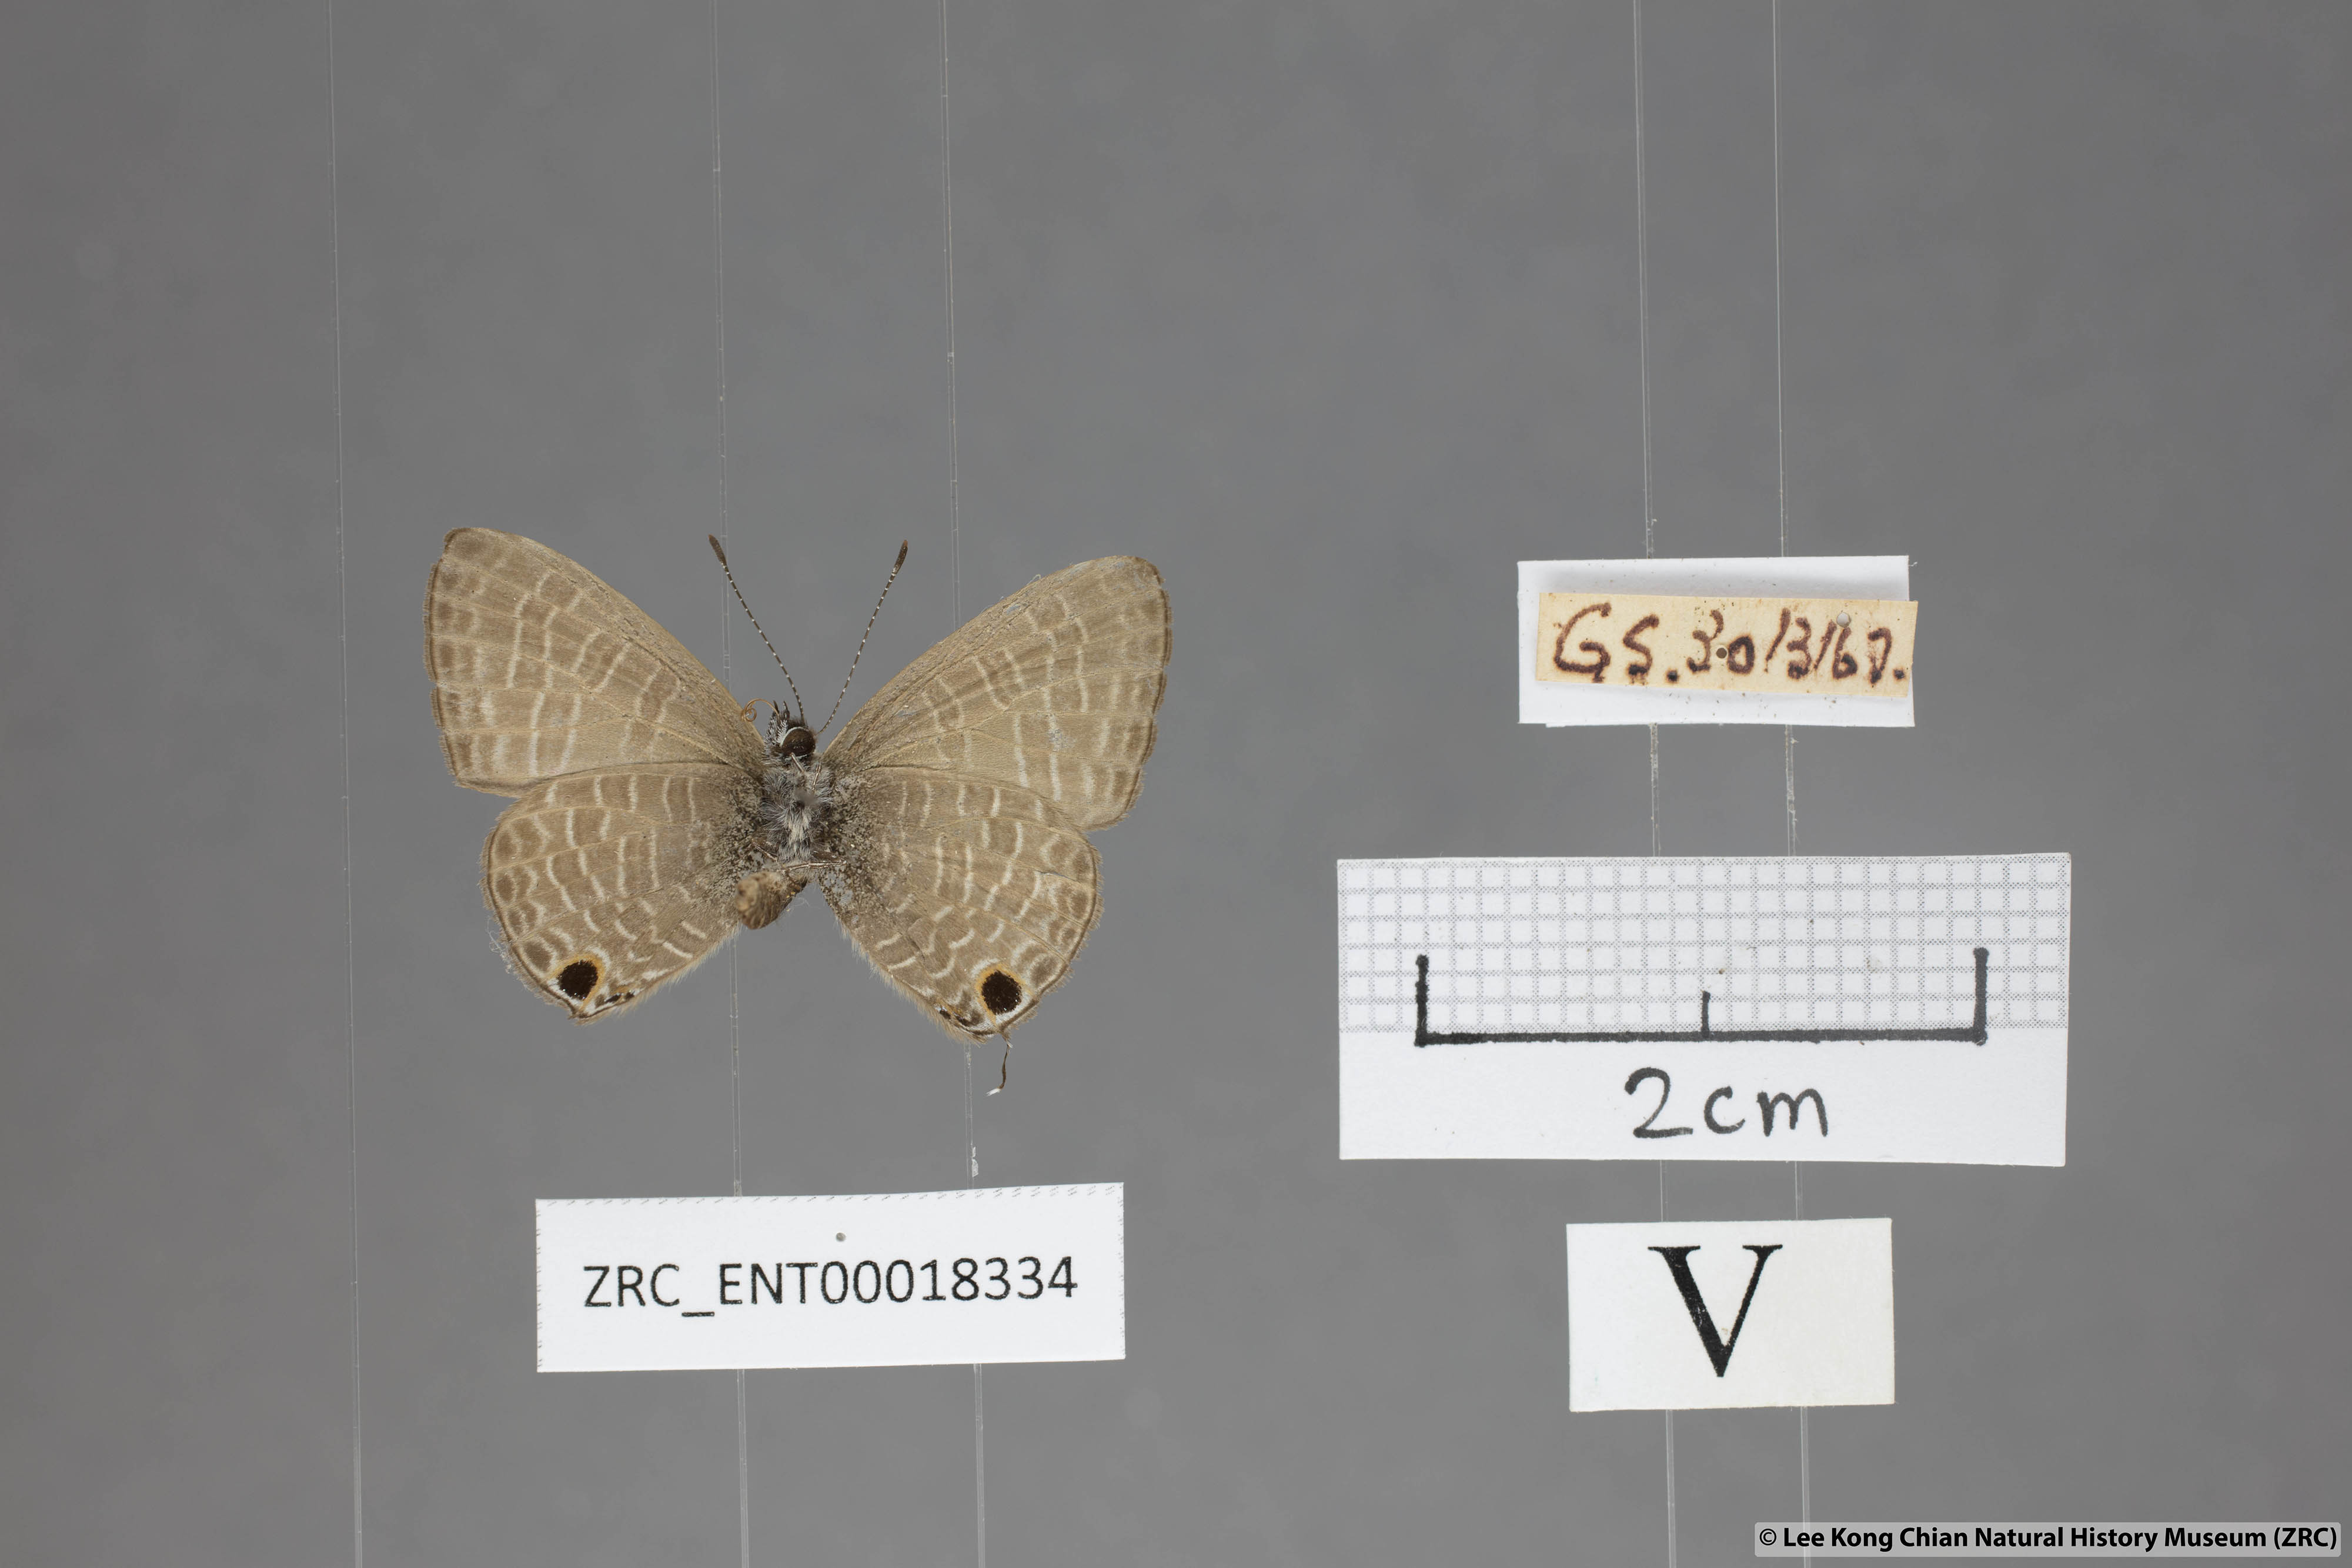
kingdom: Animalia
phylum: Arthropoda
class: Insecta
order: Lepidoptera
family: Lycaenidae
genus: Nacaduba
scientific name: Nacaduba beroe
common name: Opaque sixline blue
